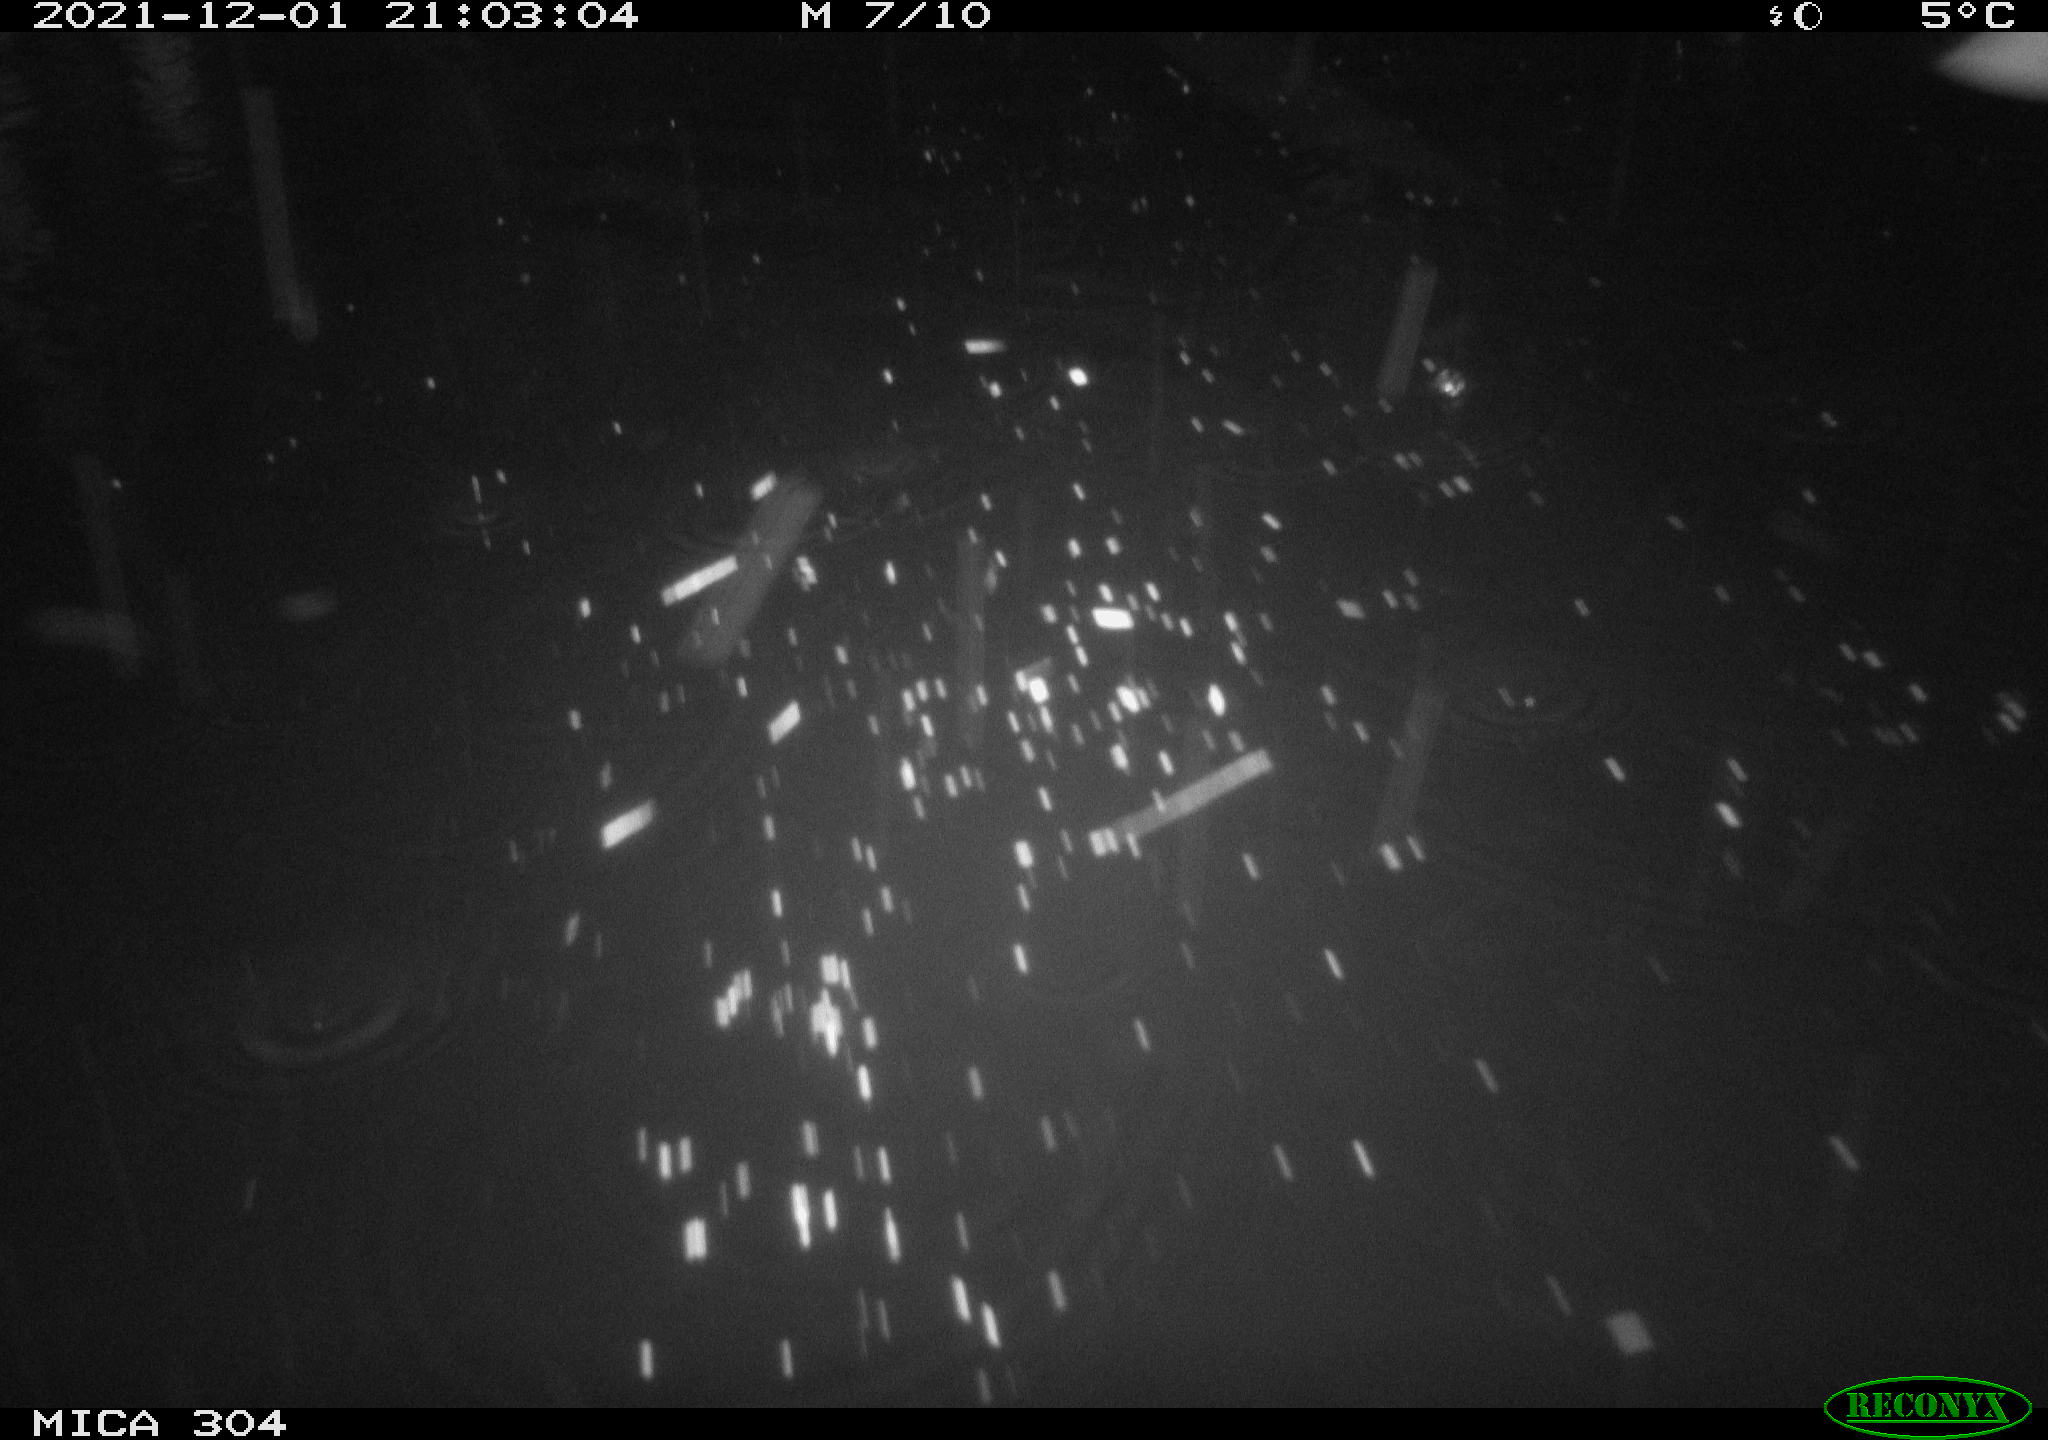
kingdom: Animalia
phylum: Chordata
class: Mammalia
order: Rodentia
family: Muridae
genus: Rattus
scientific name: Rattus norvegicus
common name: Brown rat
